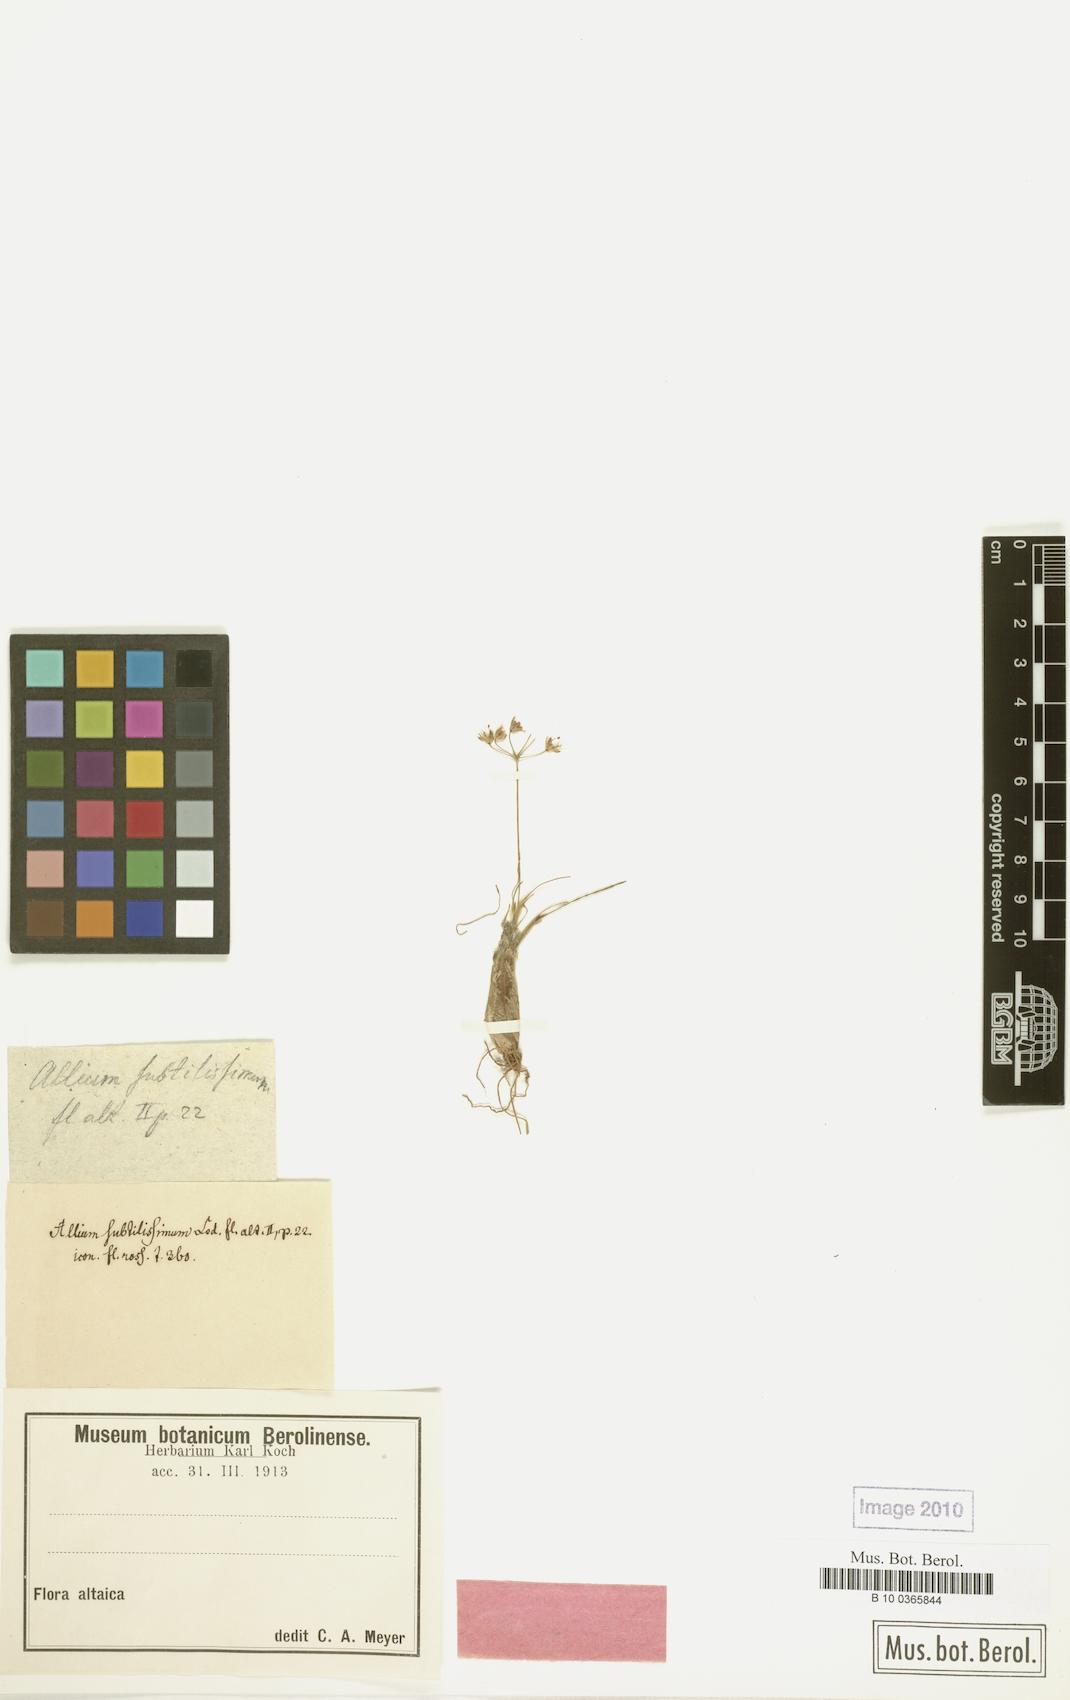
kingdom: Plantae
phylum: Tracheophyta
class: Liliopsida
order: Asparagales
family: Amaryllidaceae
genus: Allium
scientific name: Allium subtilissimum
